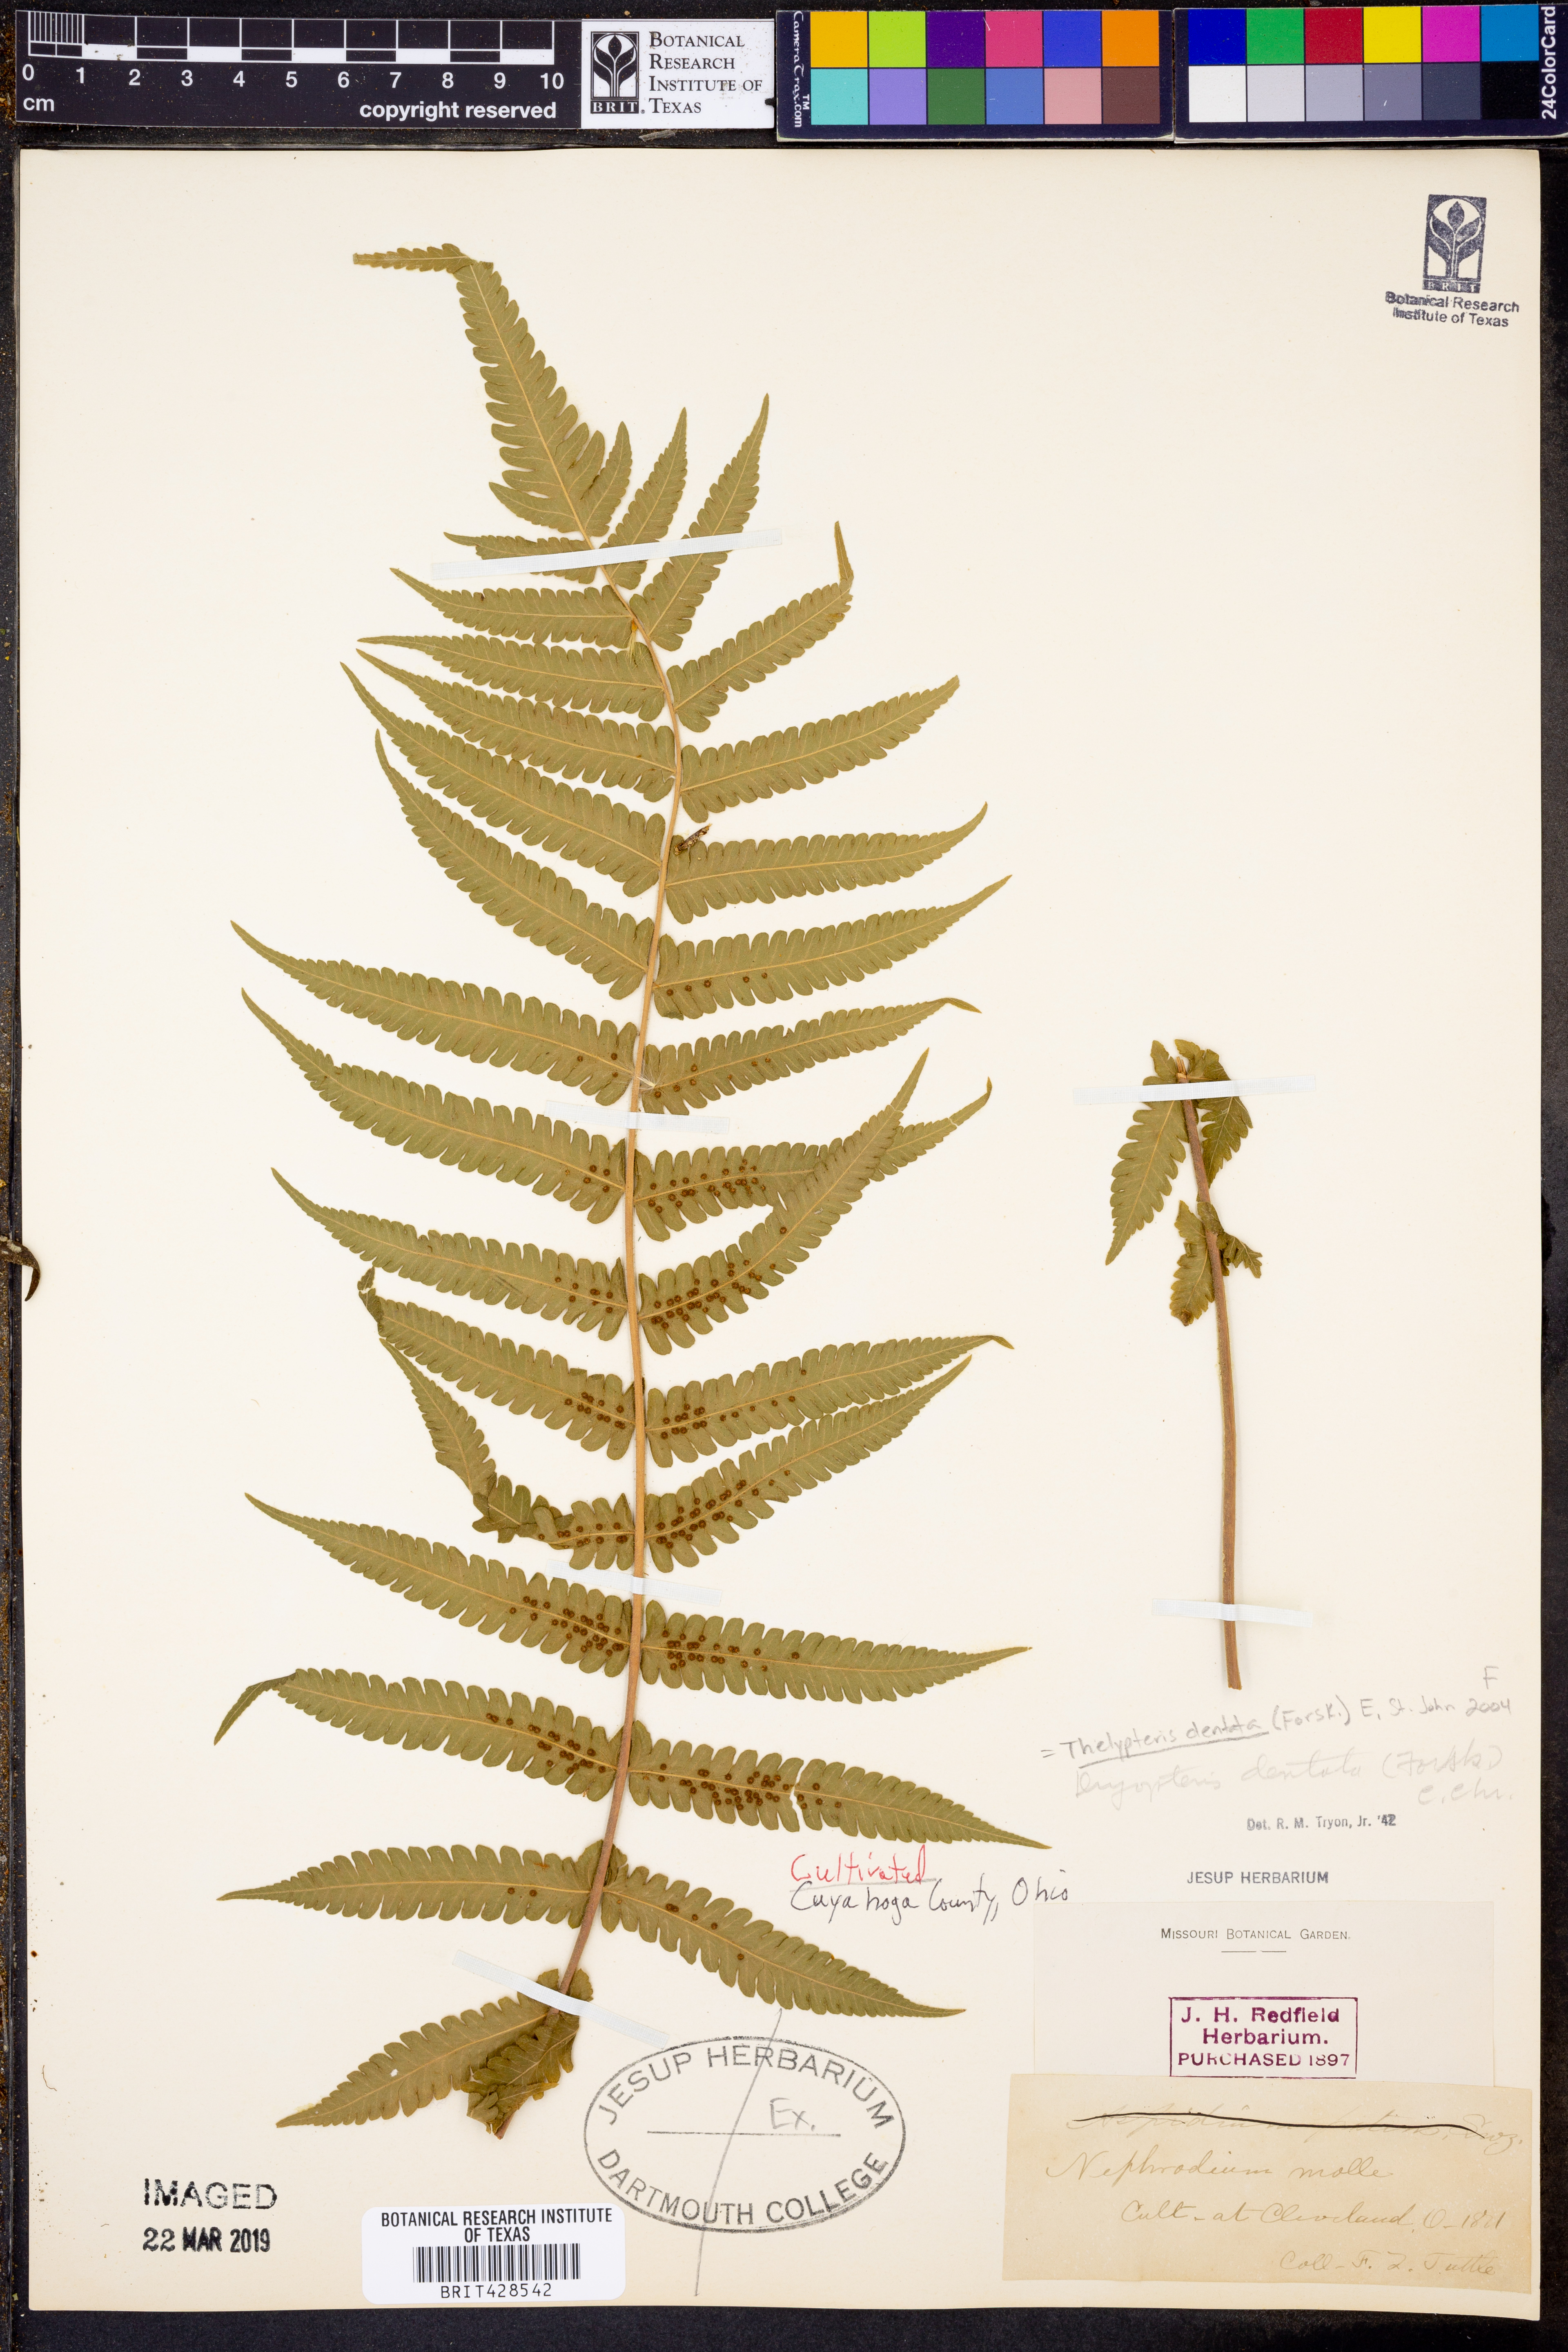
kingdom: Plantae
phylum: Tracheophyta
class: Polypodiopsida
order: Polypodiales
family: Thelypteridaceae
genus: Christella
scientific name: Christella dentata
